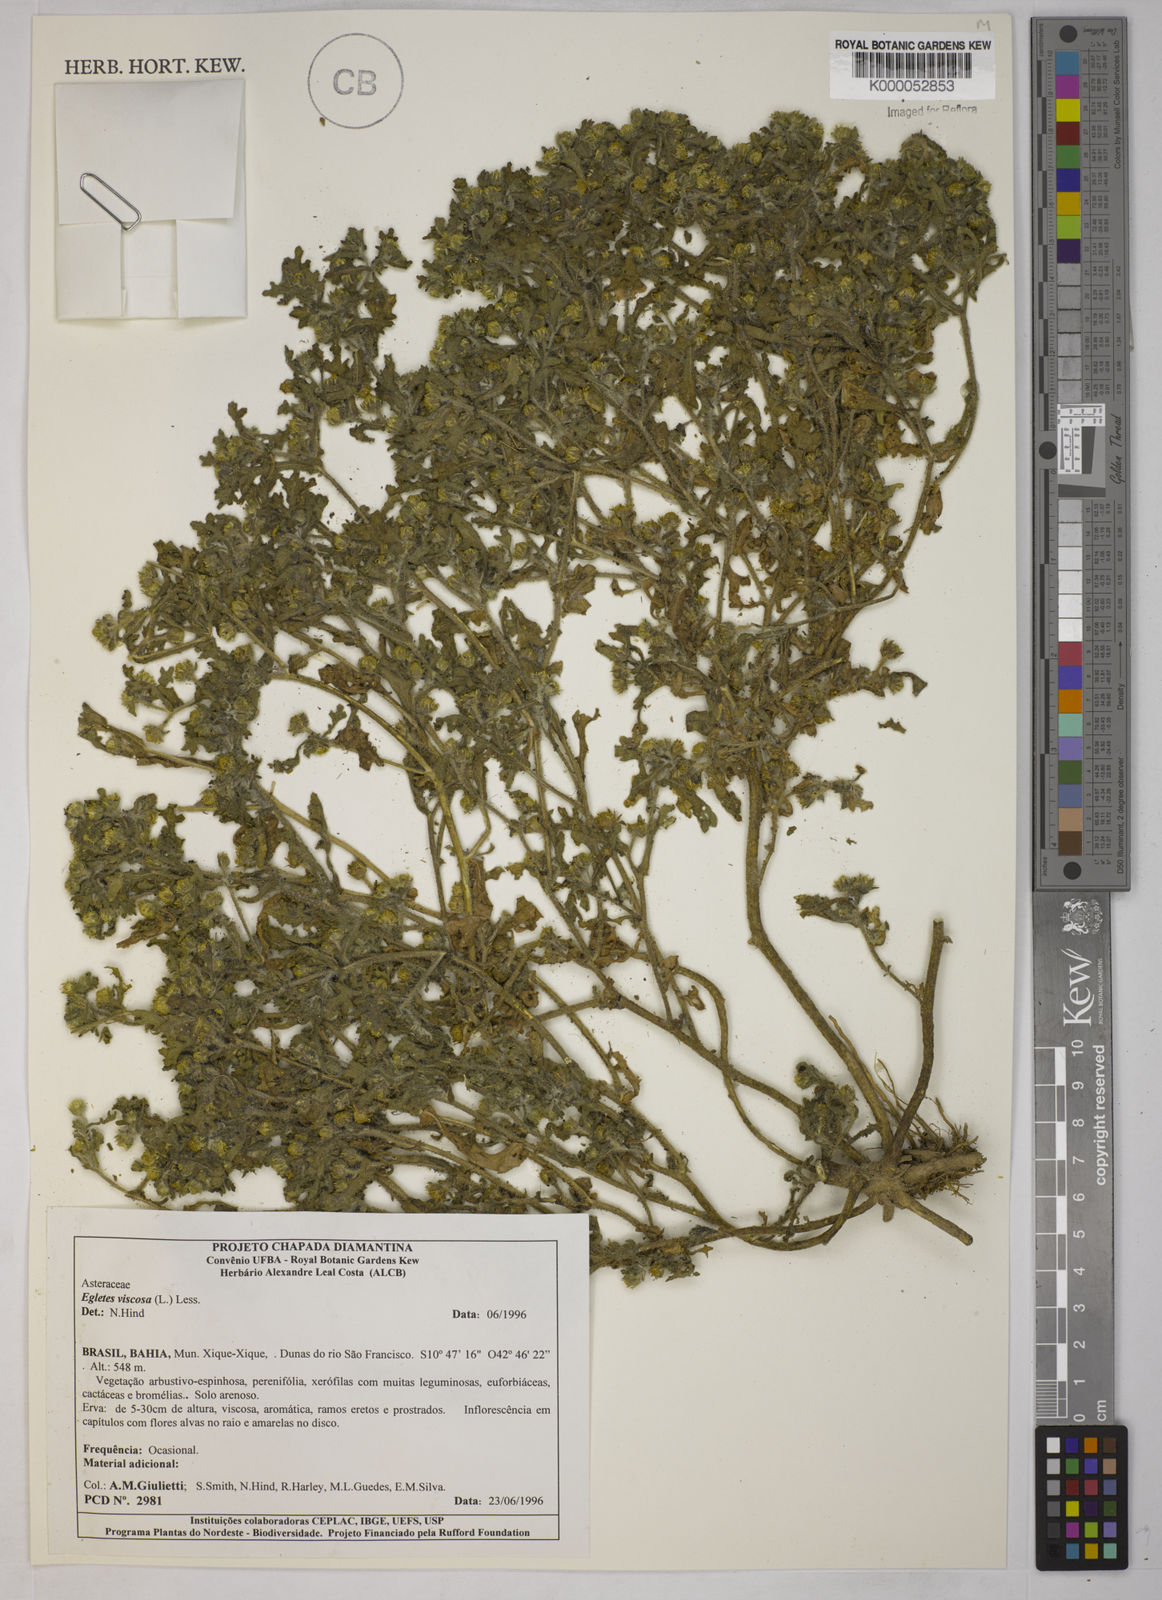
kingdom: Plantae
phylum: Tracheophyta
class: Magnoliopsida
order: Asterales
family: Asteraceae
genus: Egletes
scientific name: Egletes viscosa
